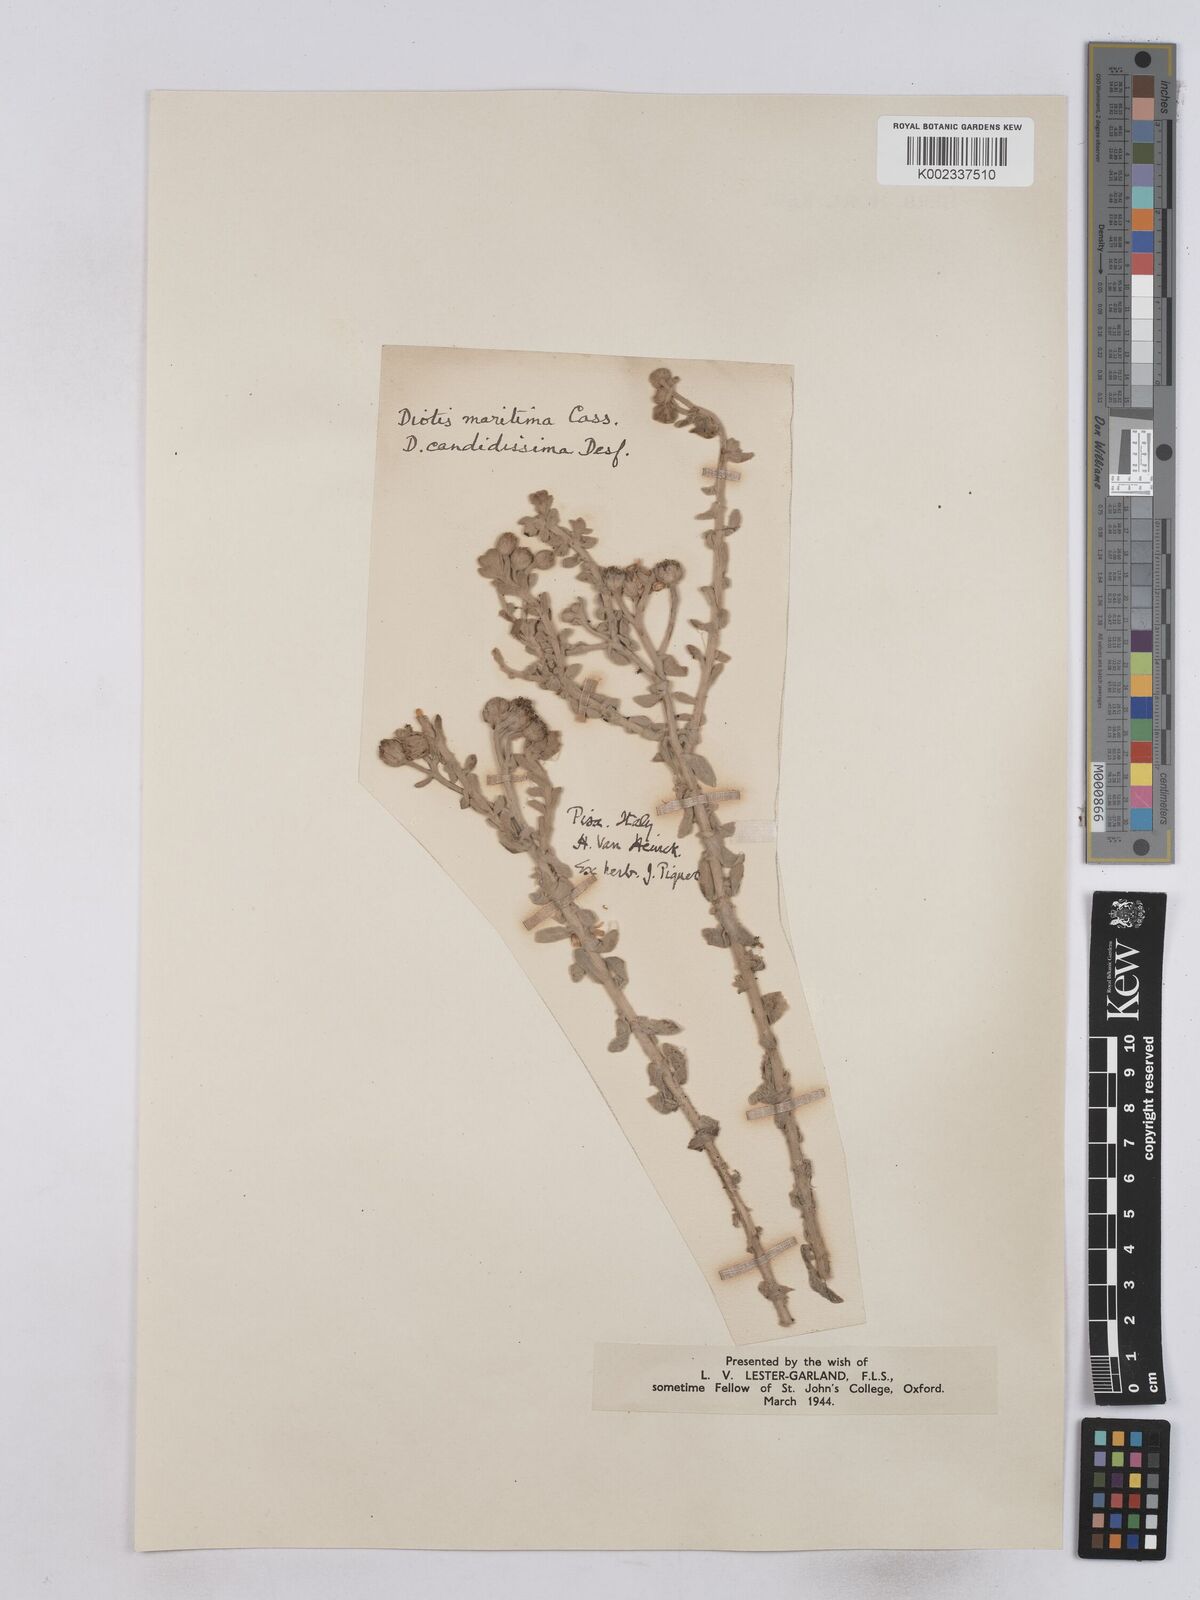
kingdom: Plantae
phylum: Tracheophyta
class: Magnoliopsida
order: Asterales
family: Asteraceae
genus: Achillea
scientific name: Achillea maritima
